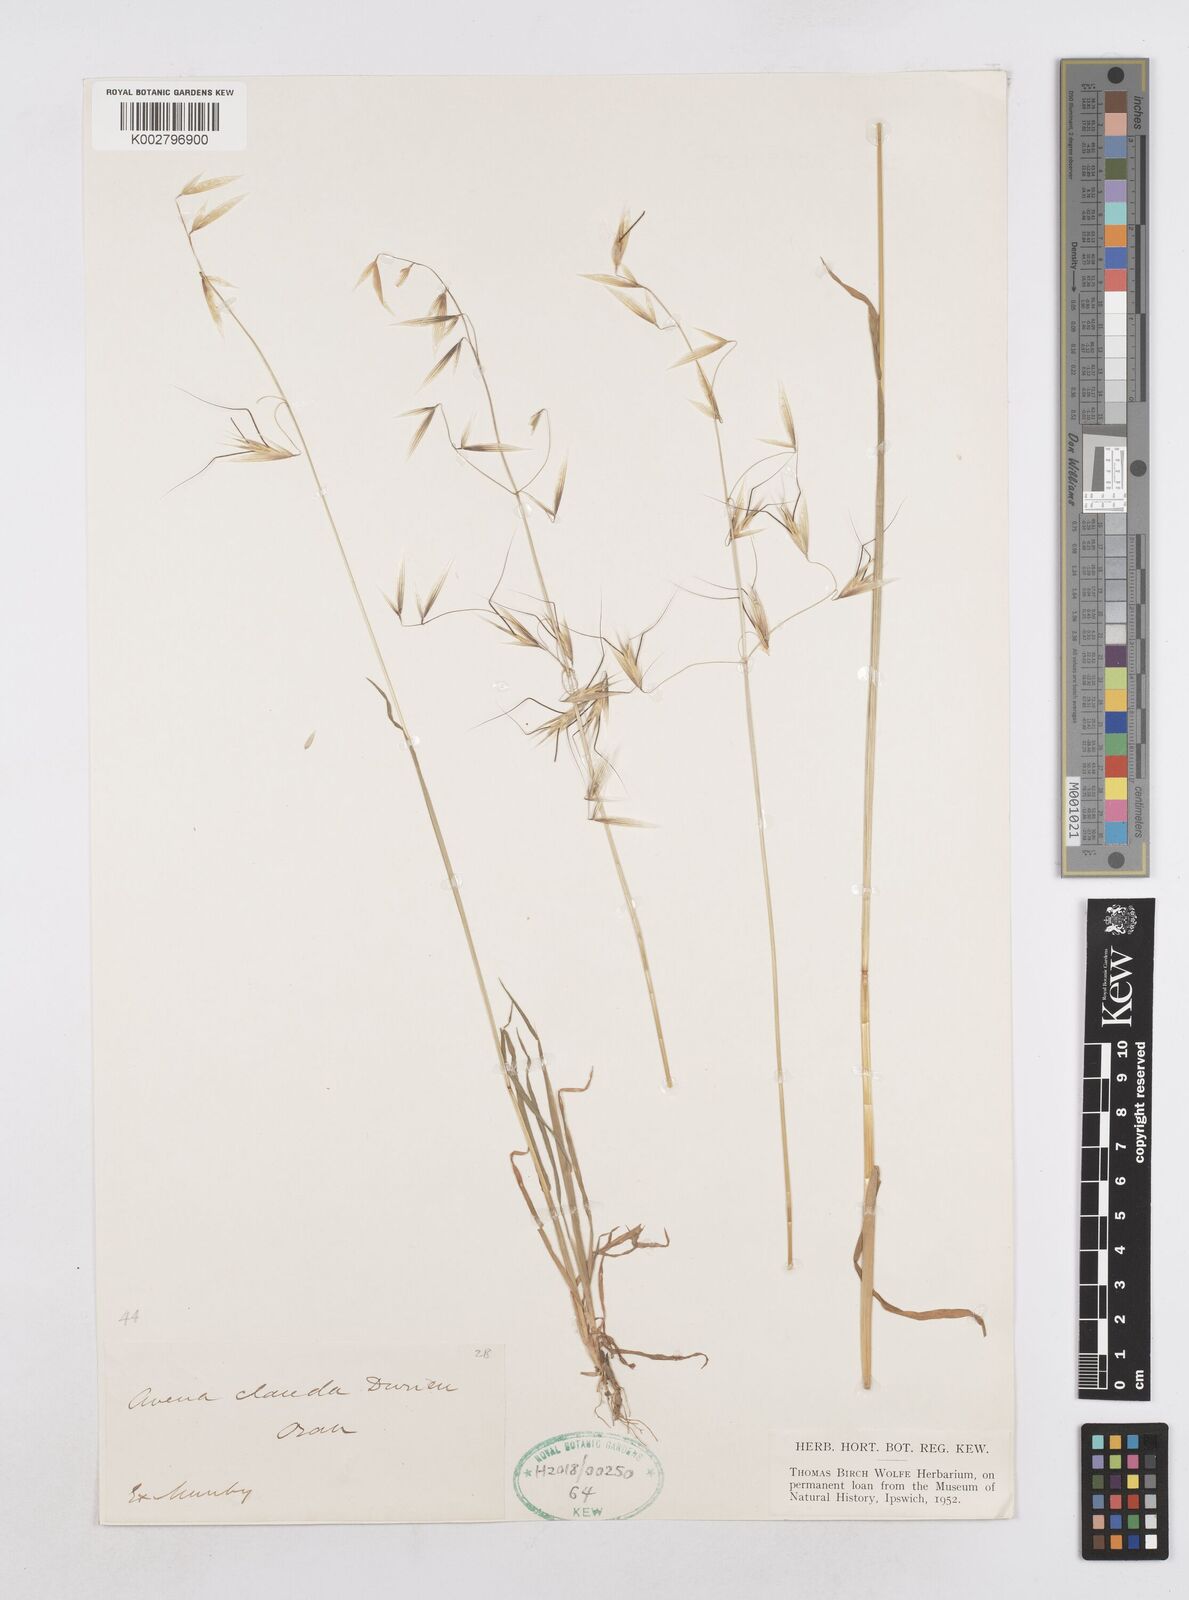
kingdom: Plantae
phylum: Tracheophyta
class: Liliopsida
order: Poales
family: Poaceae
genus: Avena
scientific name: Avena clauda
